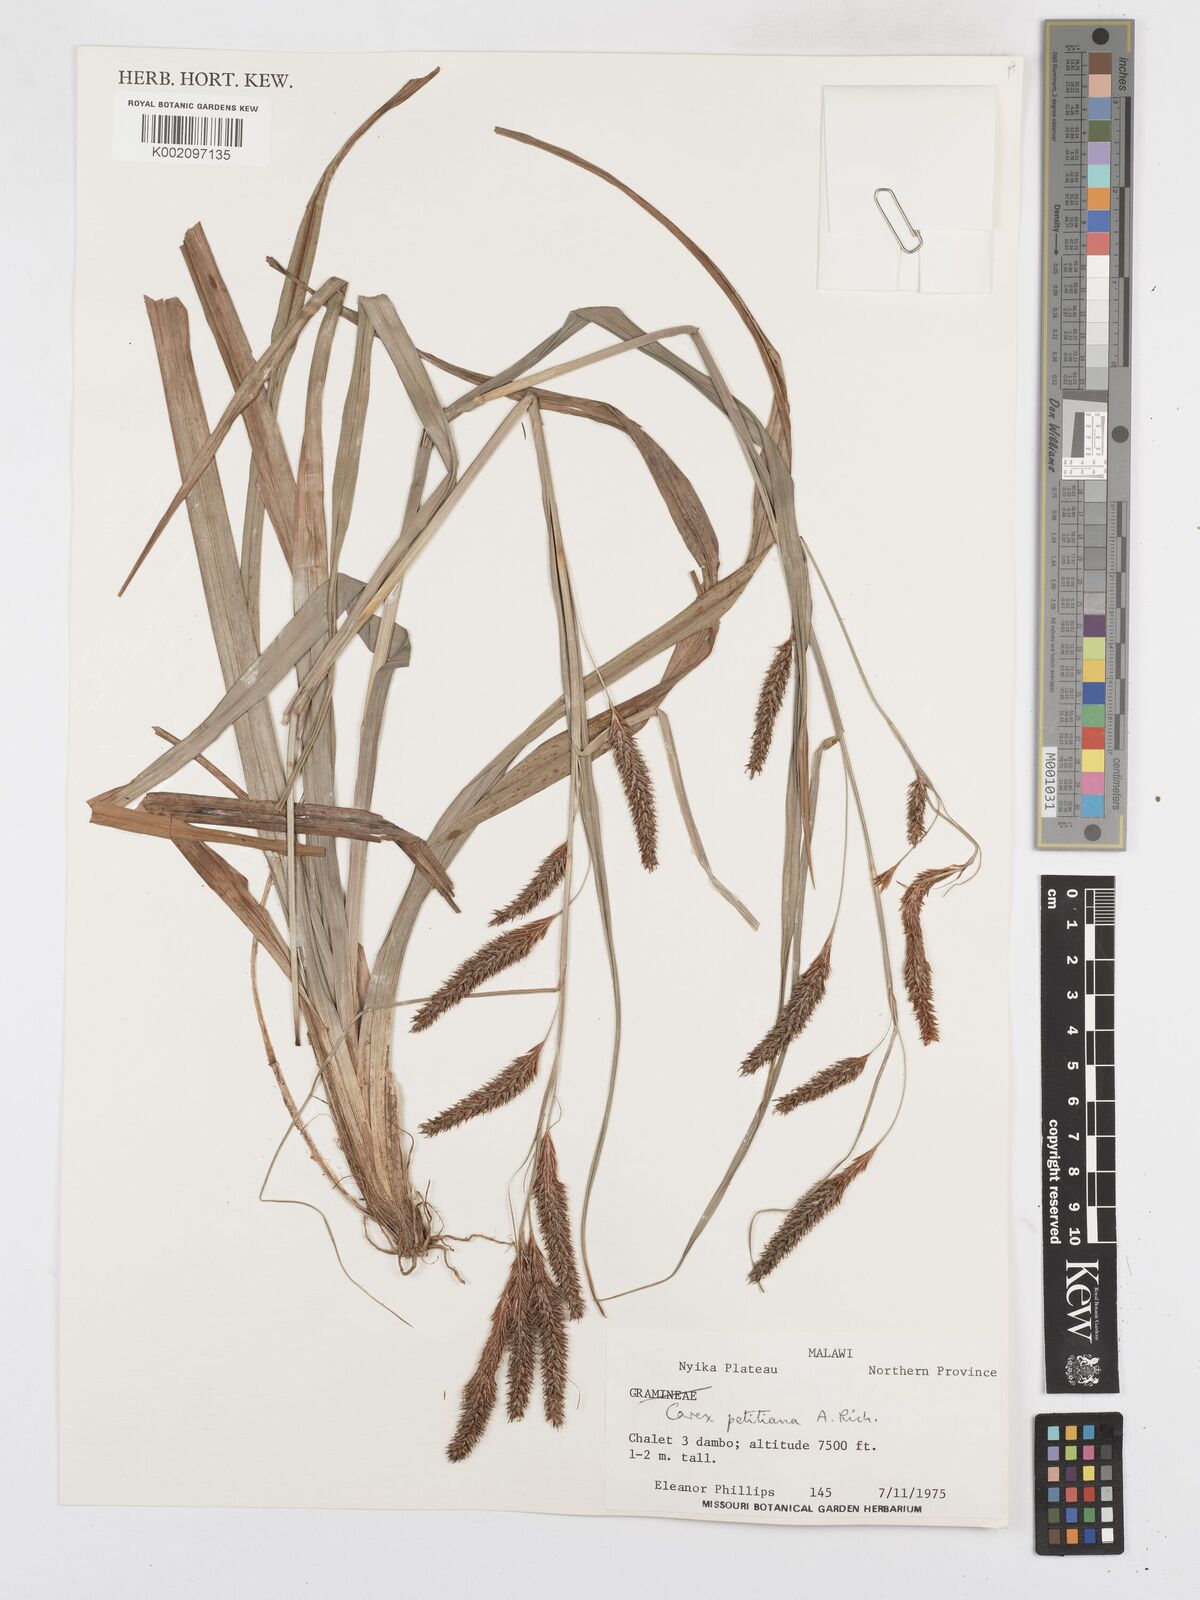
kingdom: Plantae
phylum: Tracheophyta
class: Liliopsida
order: Poales
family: Cyperaceae
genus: Carex
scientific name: Carex petitiana
